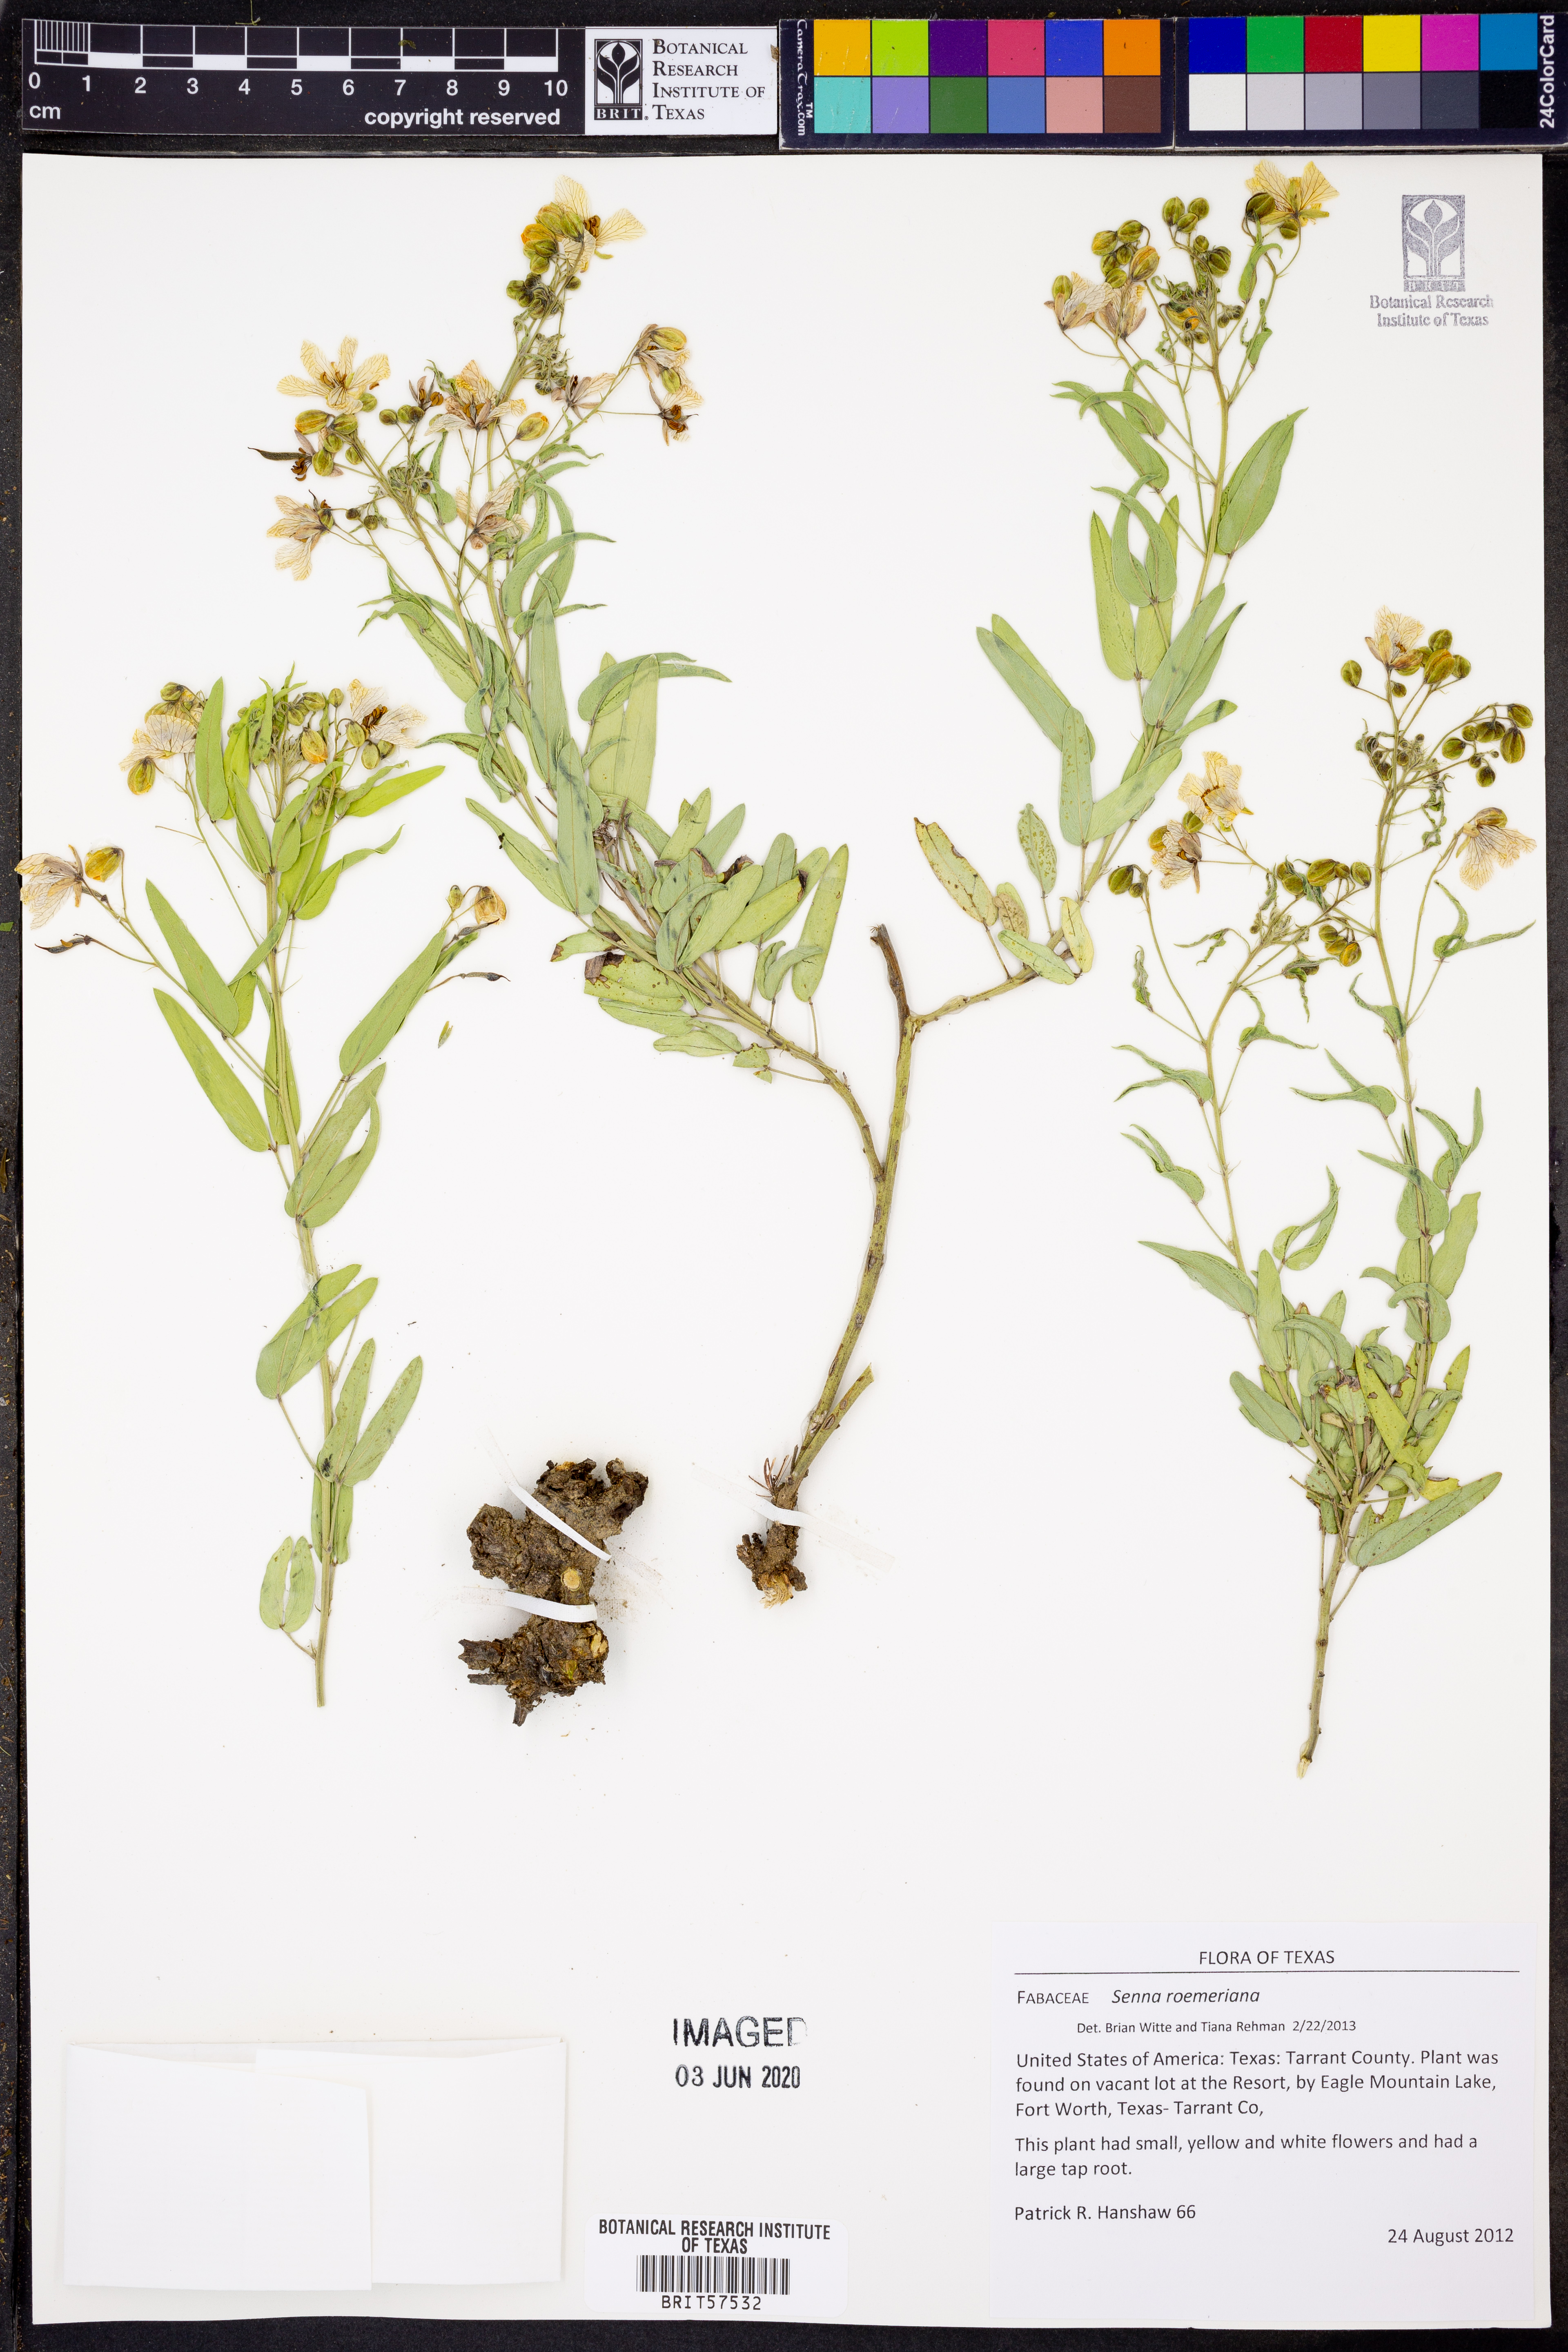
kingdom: Plantae
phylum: Tracheophyta
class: Magnoliopsida
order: Fabales
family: Fabaceae
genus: Senna
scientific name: Senna roemeriana
